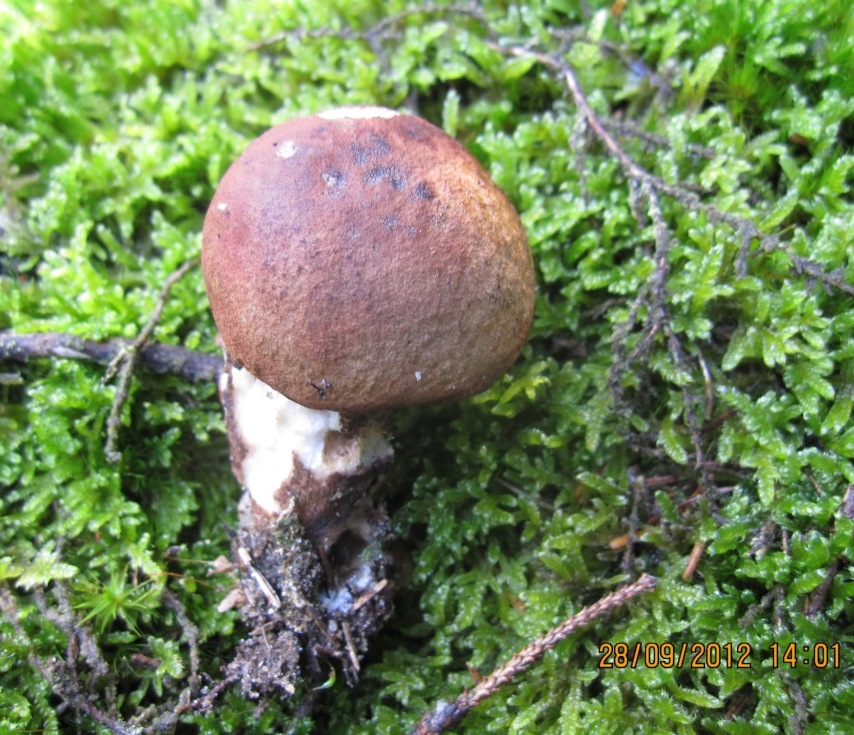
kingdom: Fungi
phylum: Basidiomycota
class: Agaricomycetes
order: Boletales
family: Boletaceae
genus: Leccinum
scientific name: Leccinum vulpinum
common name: fyrre-skælrørhat
